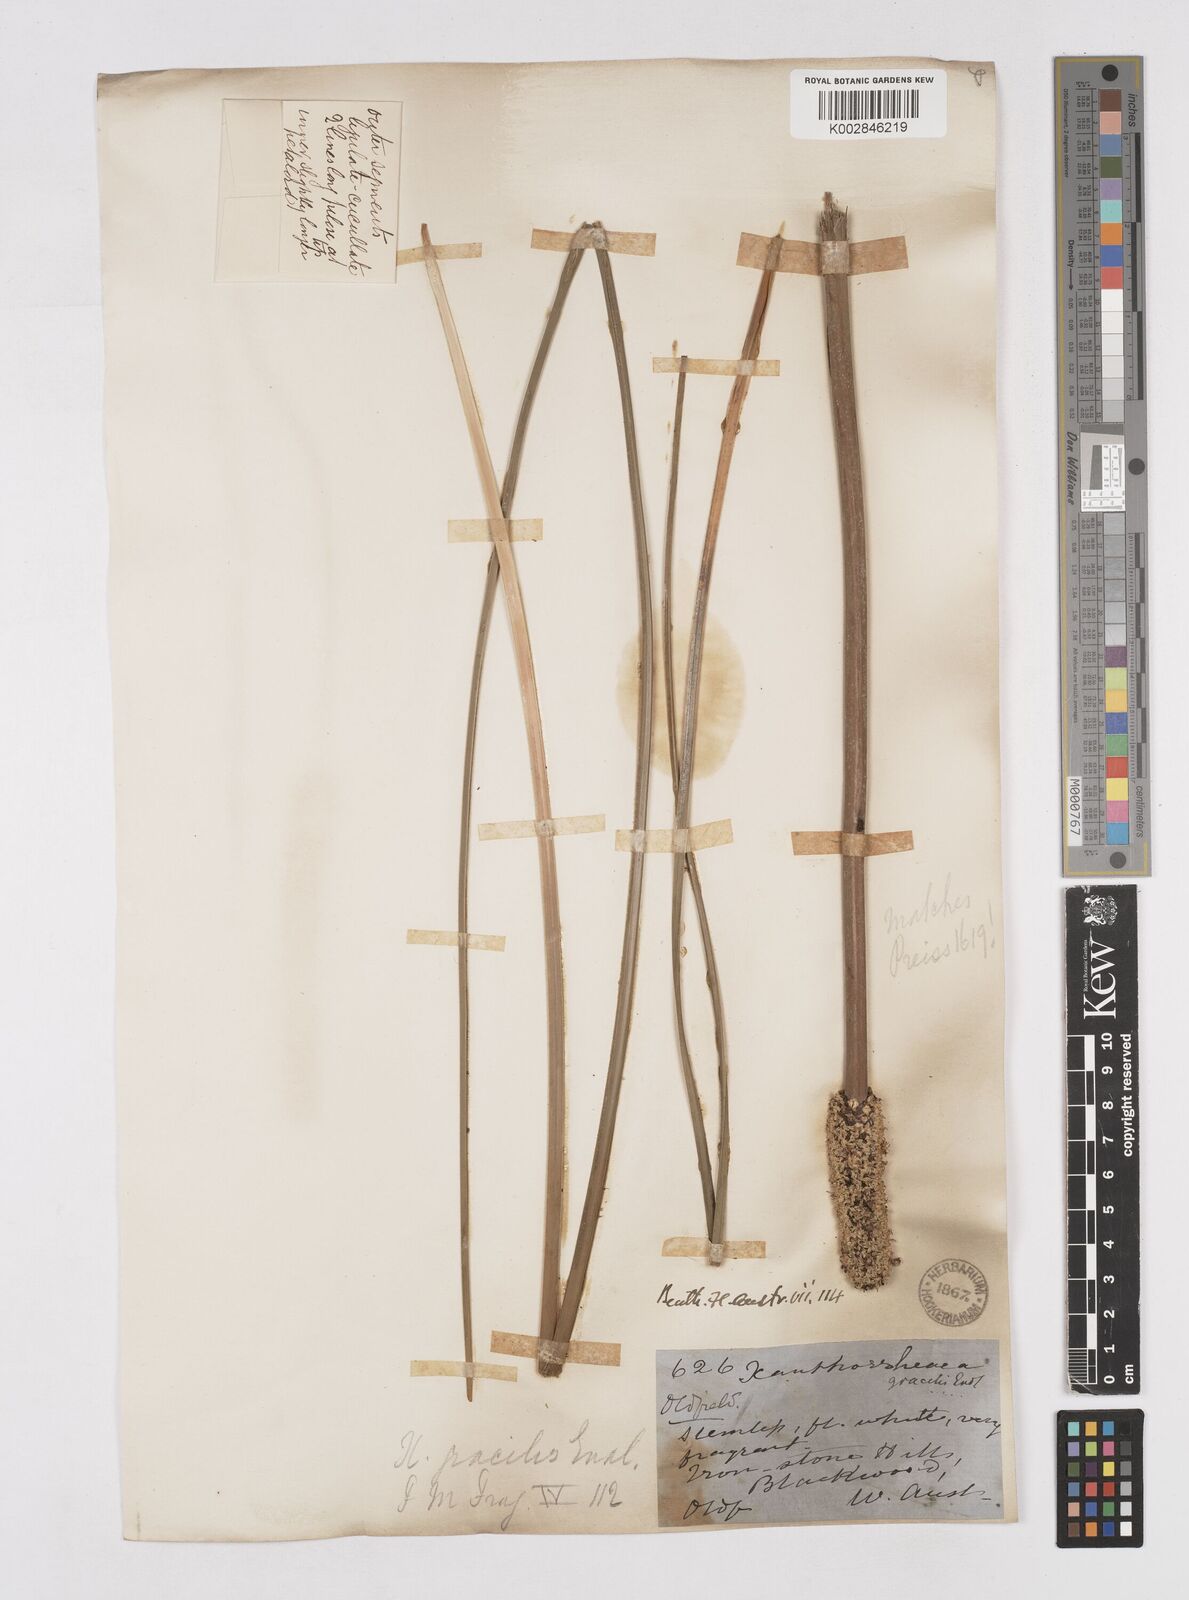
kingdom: Plantae
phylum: Tracheophyta
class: Liliopsida
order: Asparagales
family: Asphodelaceae
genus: Xanthorrhoea
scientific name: Xanthorrhoea gracilis
